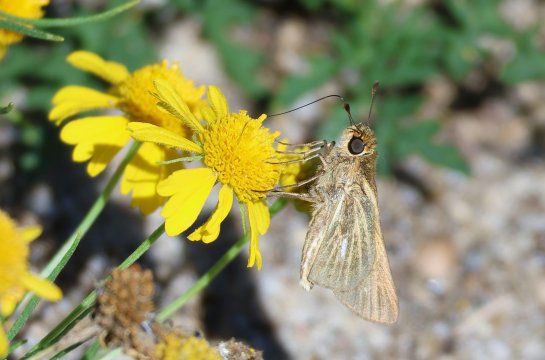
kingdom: Animalia
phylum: Arthropoda
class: Insecta
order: Lepidoptera
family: Hesperiidae
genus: Panoquina
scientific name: Panoquina panoquin
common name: Salt Marsh Skipper
